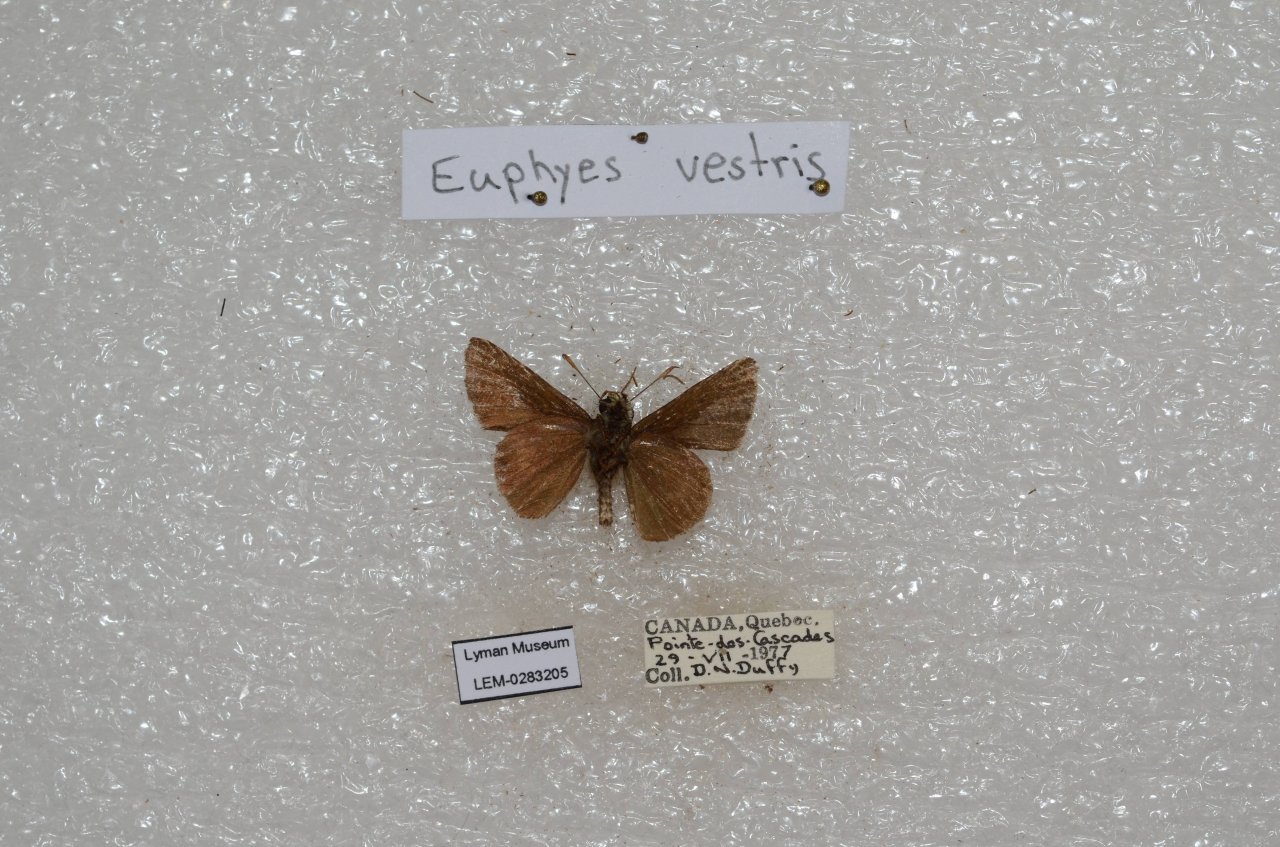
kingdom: Animalia
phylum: Arthropoda
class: Insecta
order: Lepidoptera
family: Hesperiidae
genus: Euphyes
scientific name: Euphyes vestris
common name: Dun Skipper
